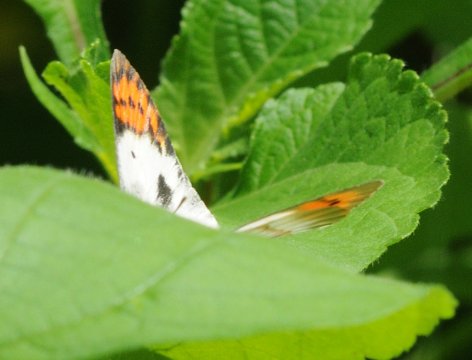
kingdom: Animalia
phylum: Arthropoda
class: Insecta
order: Lepidoptera
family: Pieridae
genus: Colotis
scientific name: Colotis antevippe
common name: Red Tip
